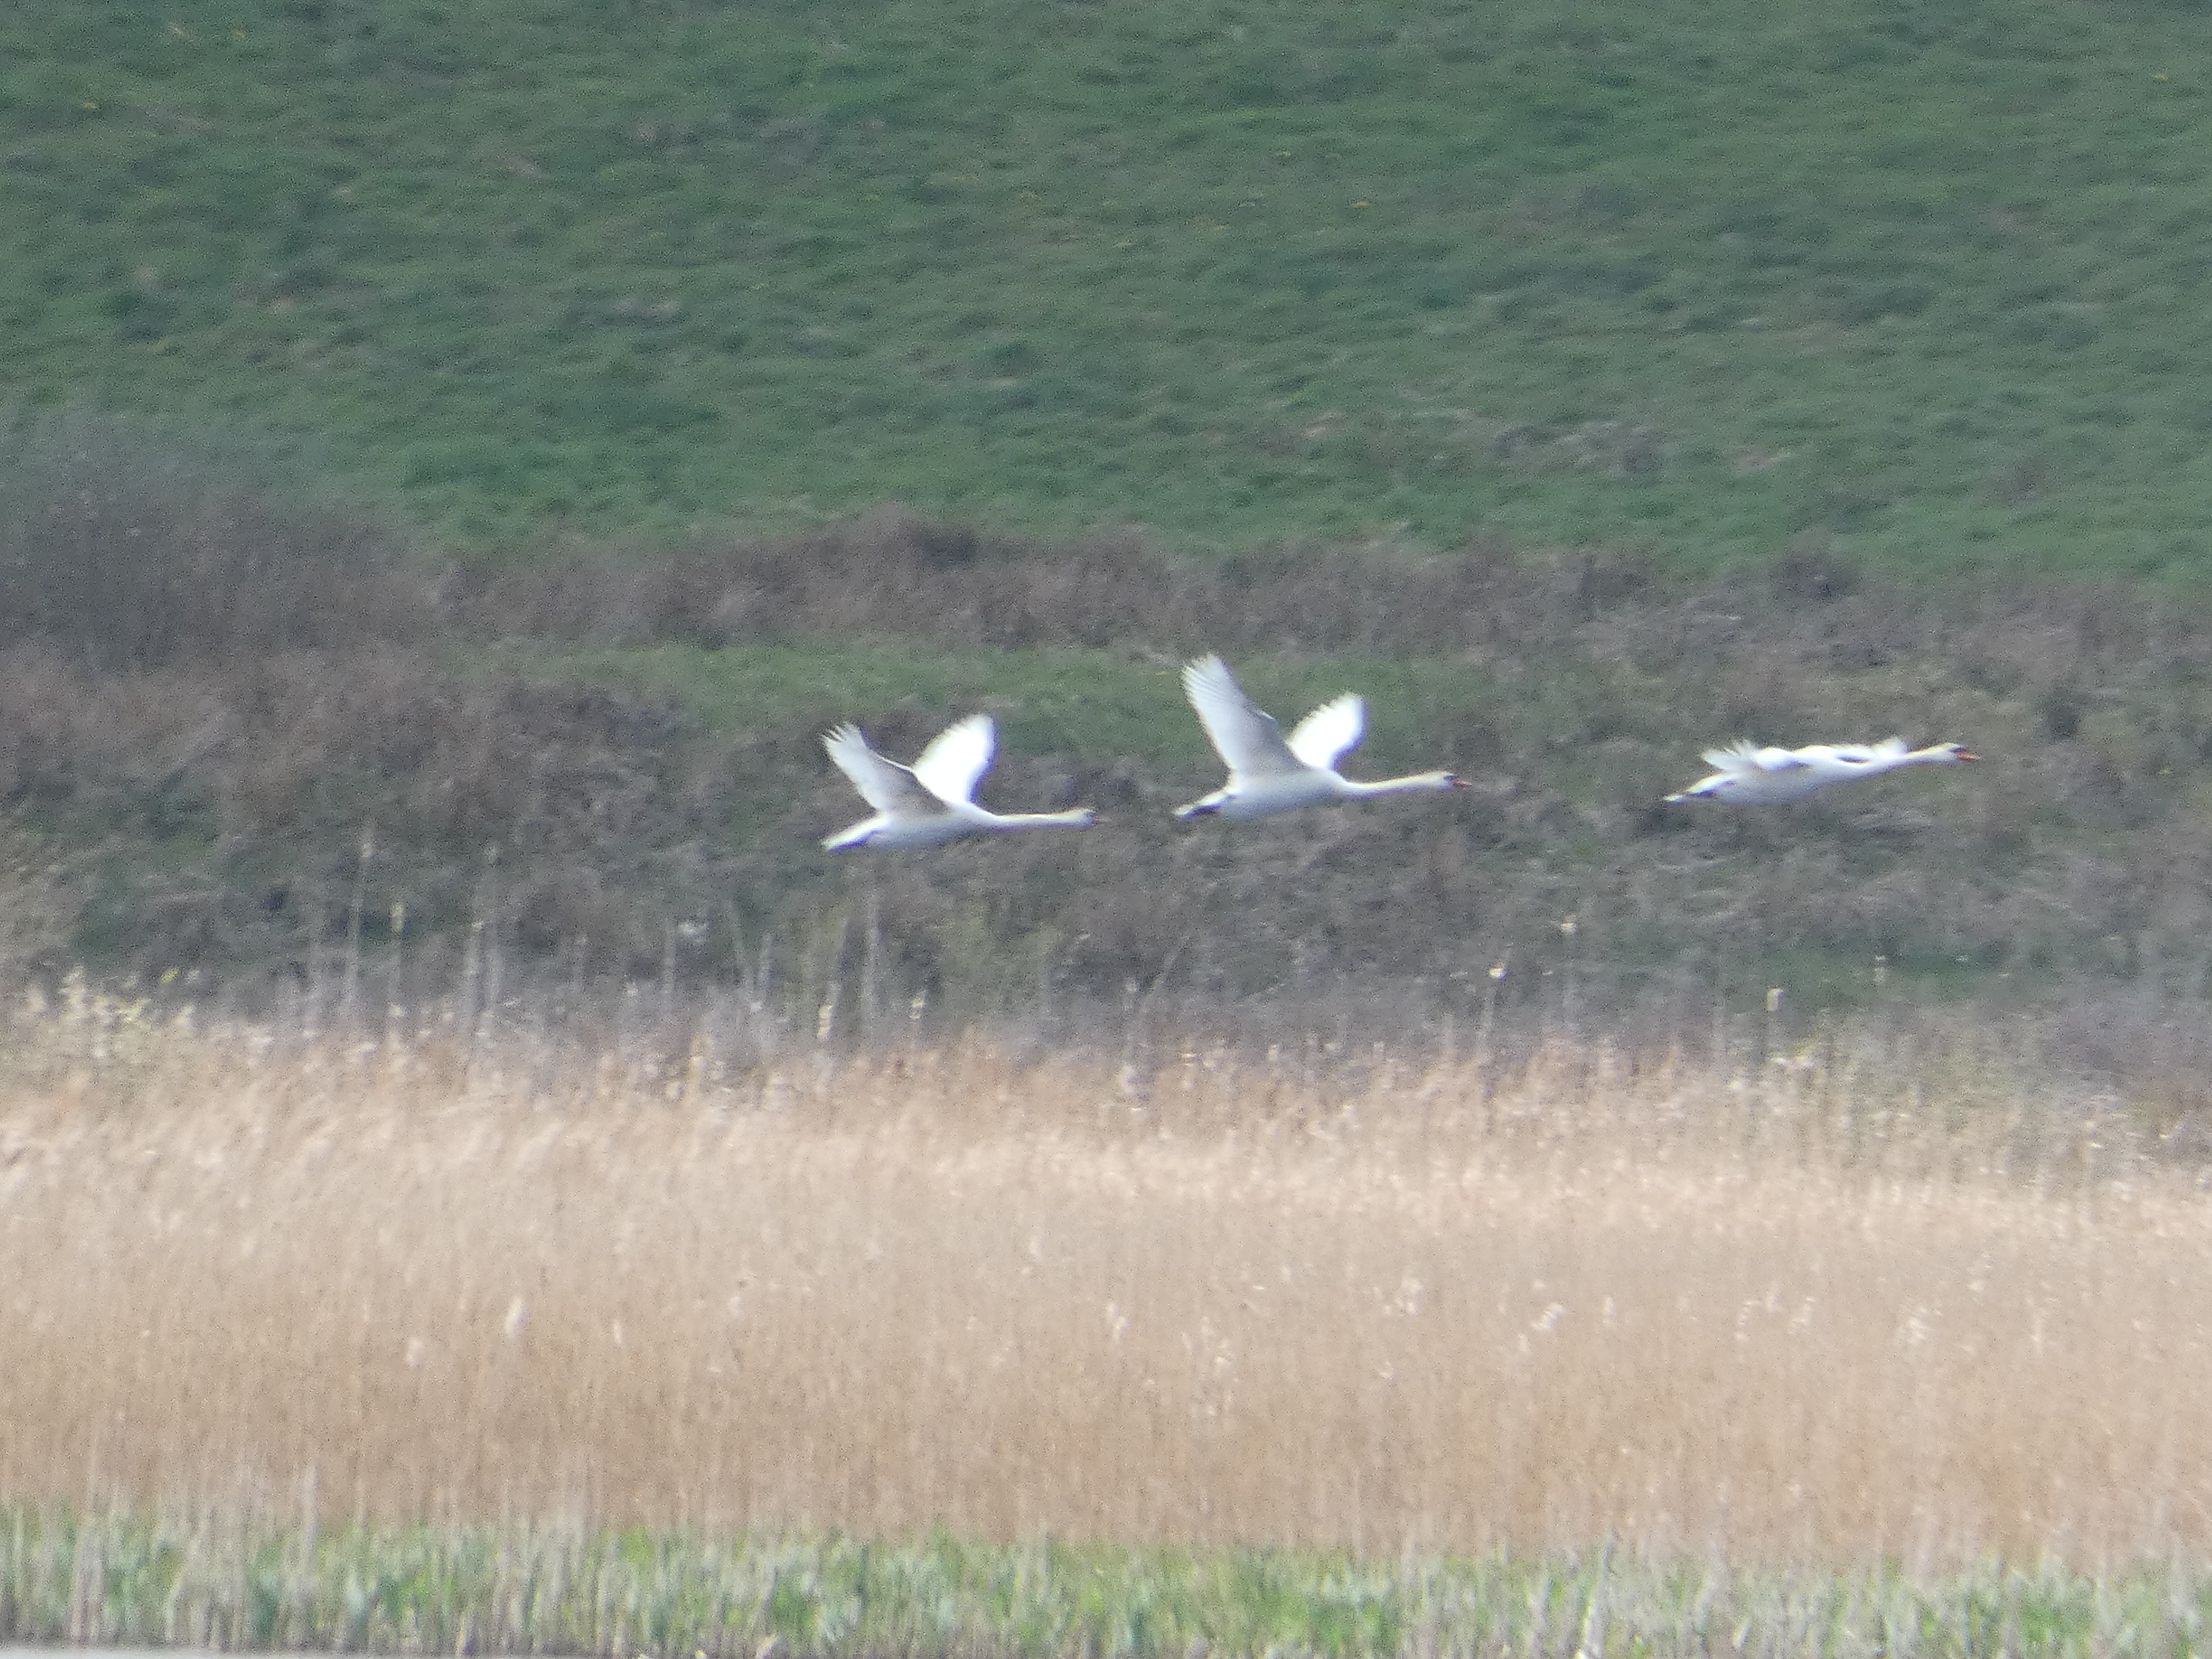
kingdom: Animalia
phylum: Chordata
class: Aves
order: Anseriformes
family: Anatidae
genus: Cygnus
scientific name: Cygnus olor
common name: Knopsvane
